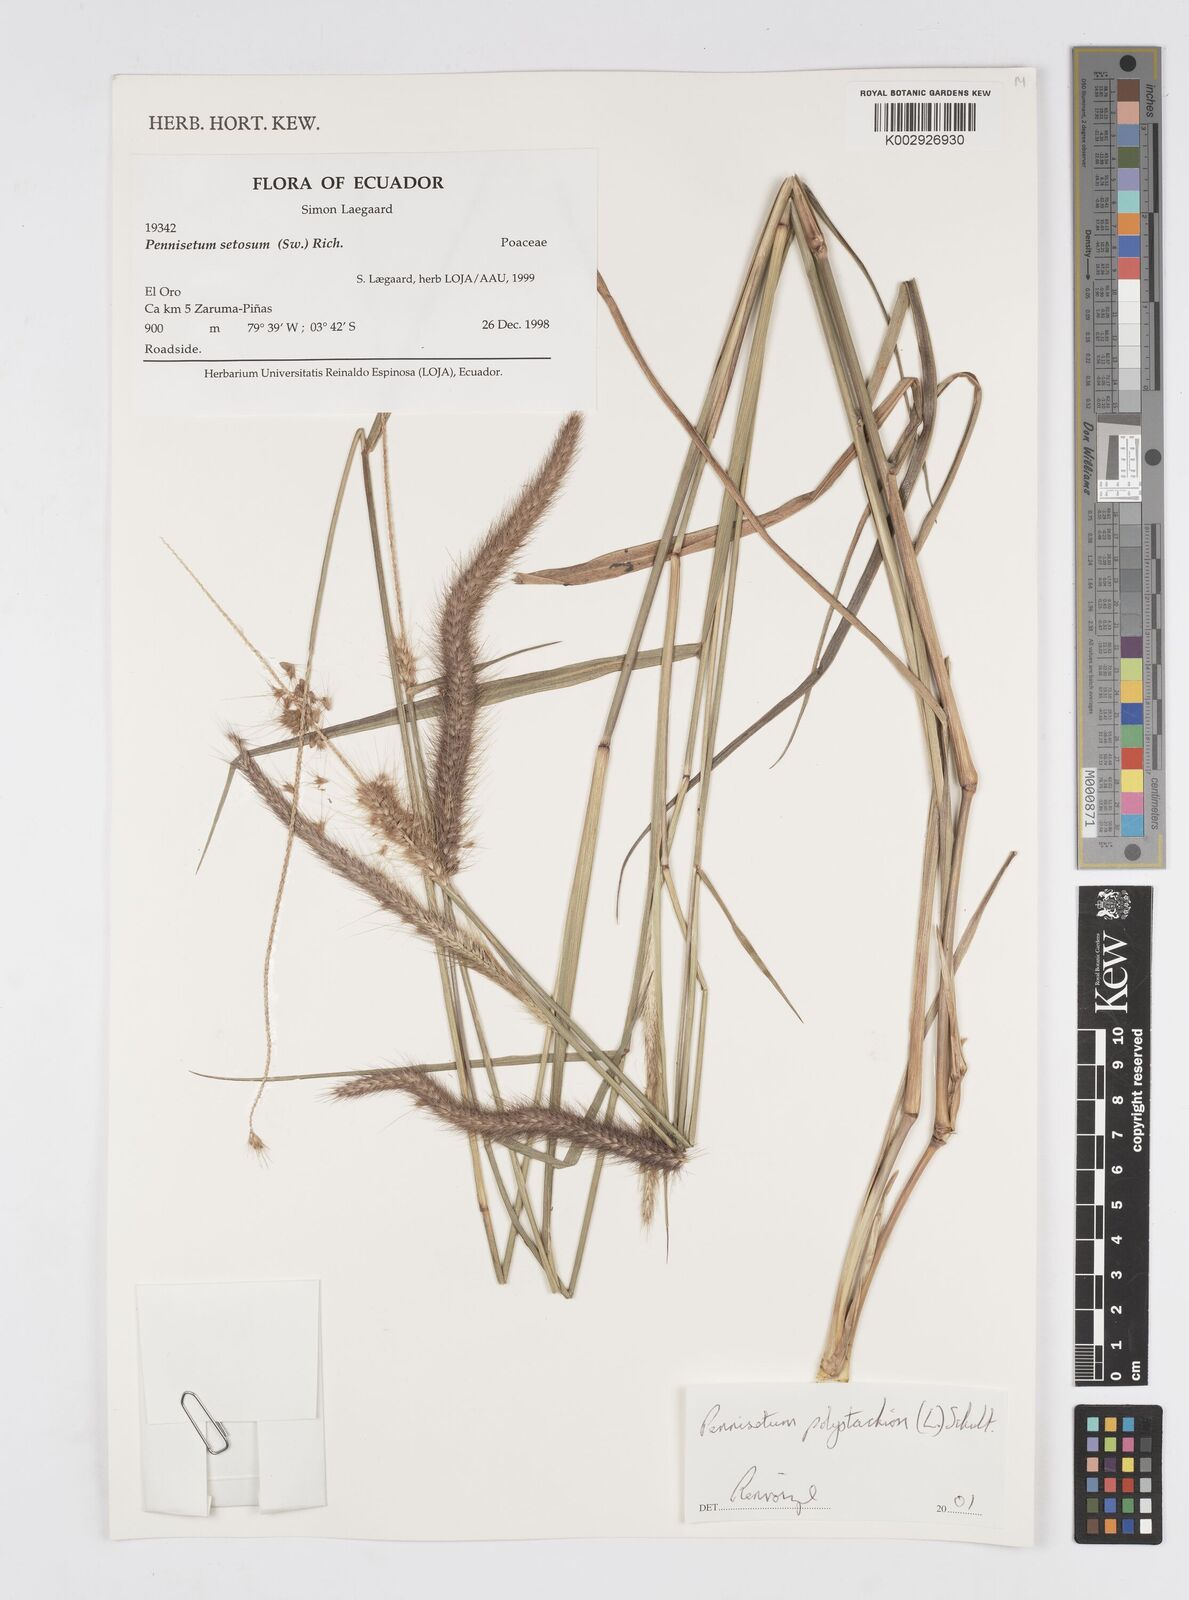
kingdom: Plantae
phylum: Tracheophyta
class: Liliopsida
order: Poales
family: Poaceae
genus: Setaria
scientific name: Setaria parviflora
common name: Knotroot bristle-grass
